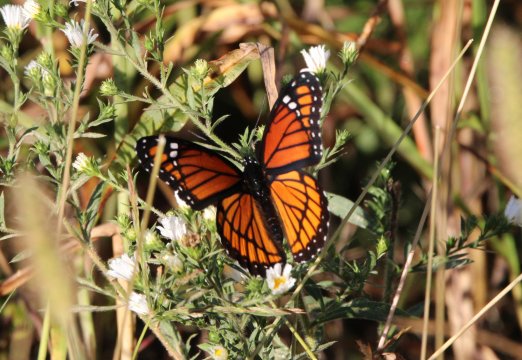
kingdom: Animalia
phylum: Arthropoda
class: Insecta
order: Lepidoptera
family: Nymphalidae
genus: Limenitis
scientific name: Limenitis archippus
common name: Viceroy
